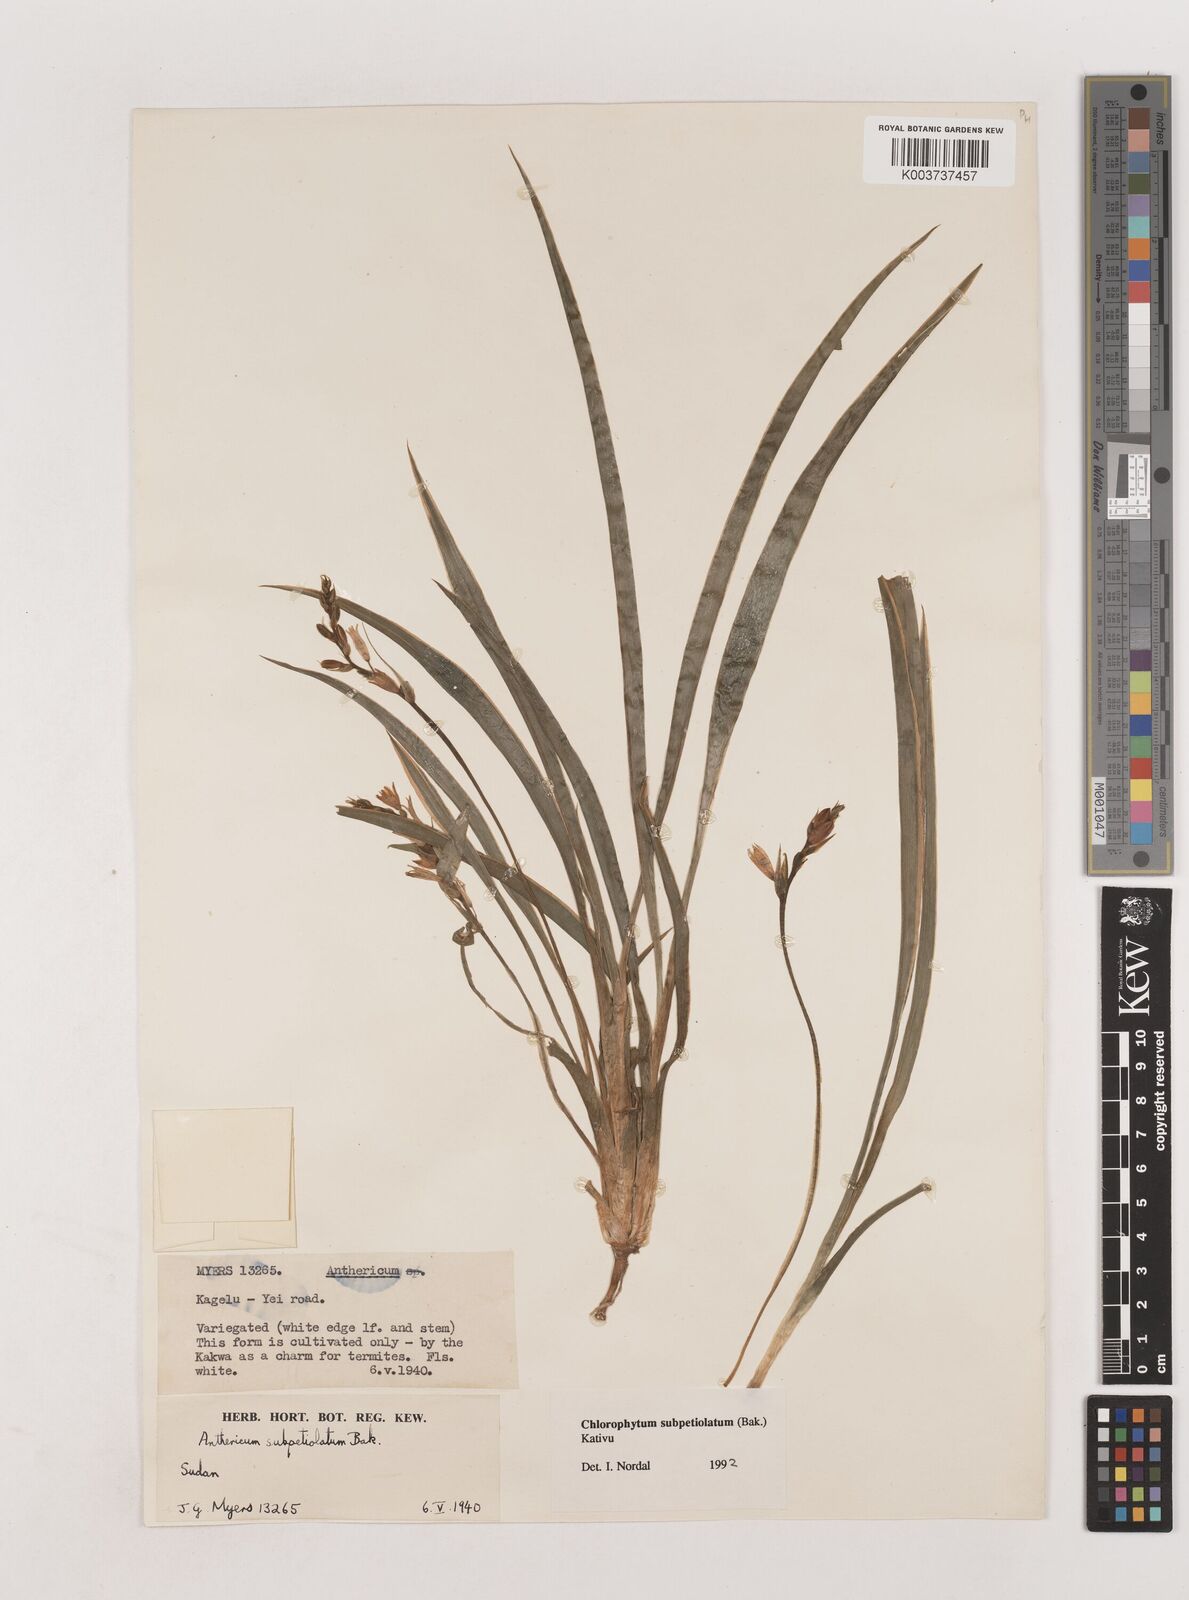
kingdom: Plantae
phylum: Tracheophyta
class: Liliopsida
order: Asparagales
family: Asparagaceae
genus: Chlorophytum
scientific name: Chlorophytum subpetiolatum
